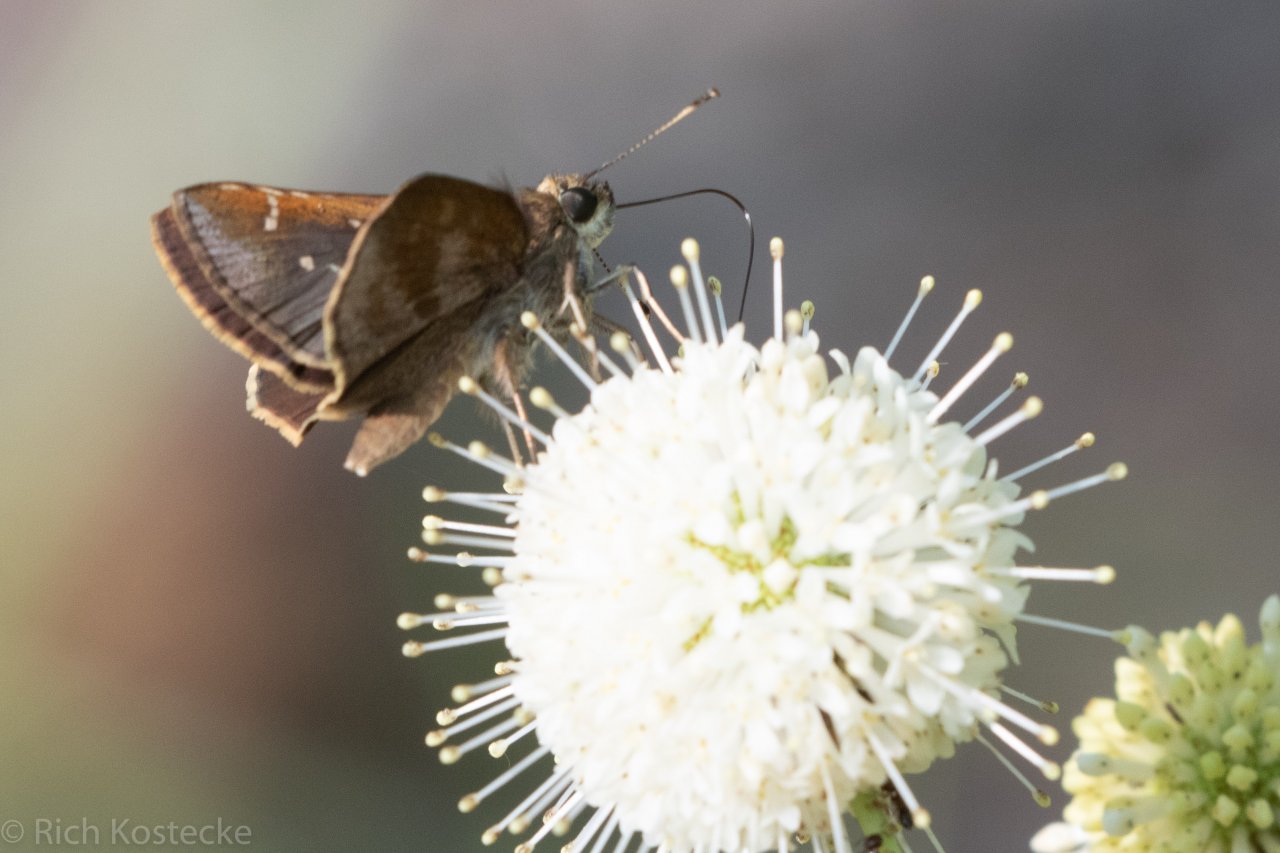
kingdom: Animalia
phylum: Arthropoda
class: Insecta
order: Lepidoptera
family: Hesperiidae
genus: Lerema
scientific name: Lerema accius
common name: Clouded Skipper
